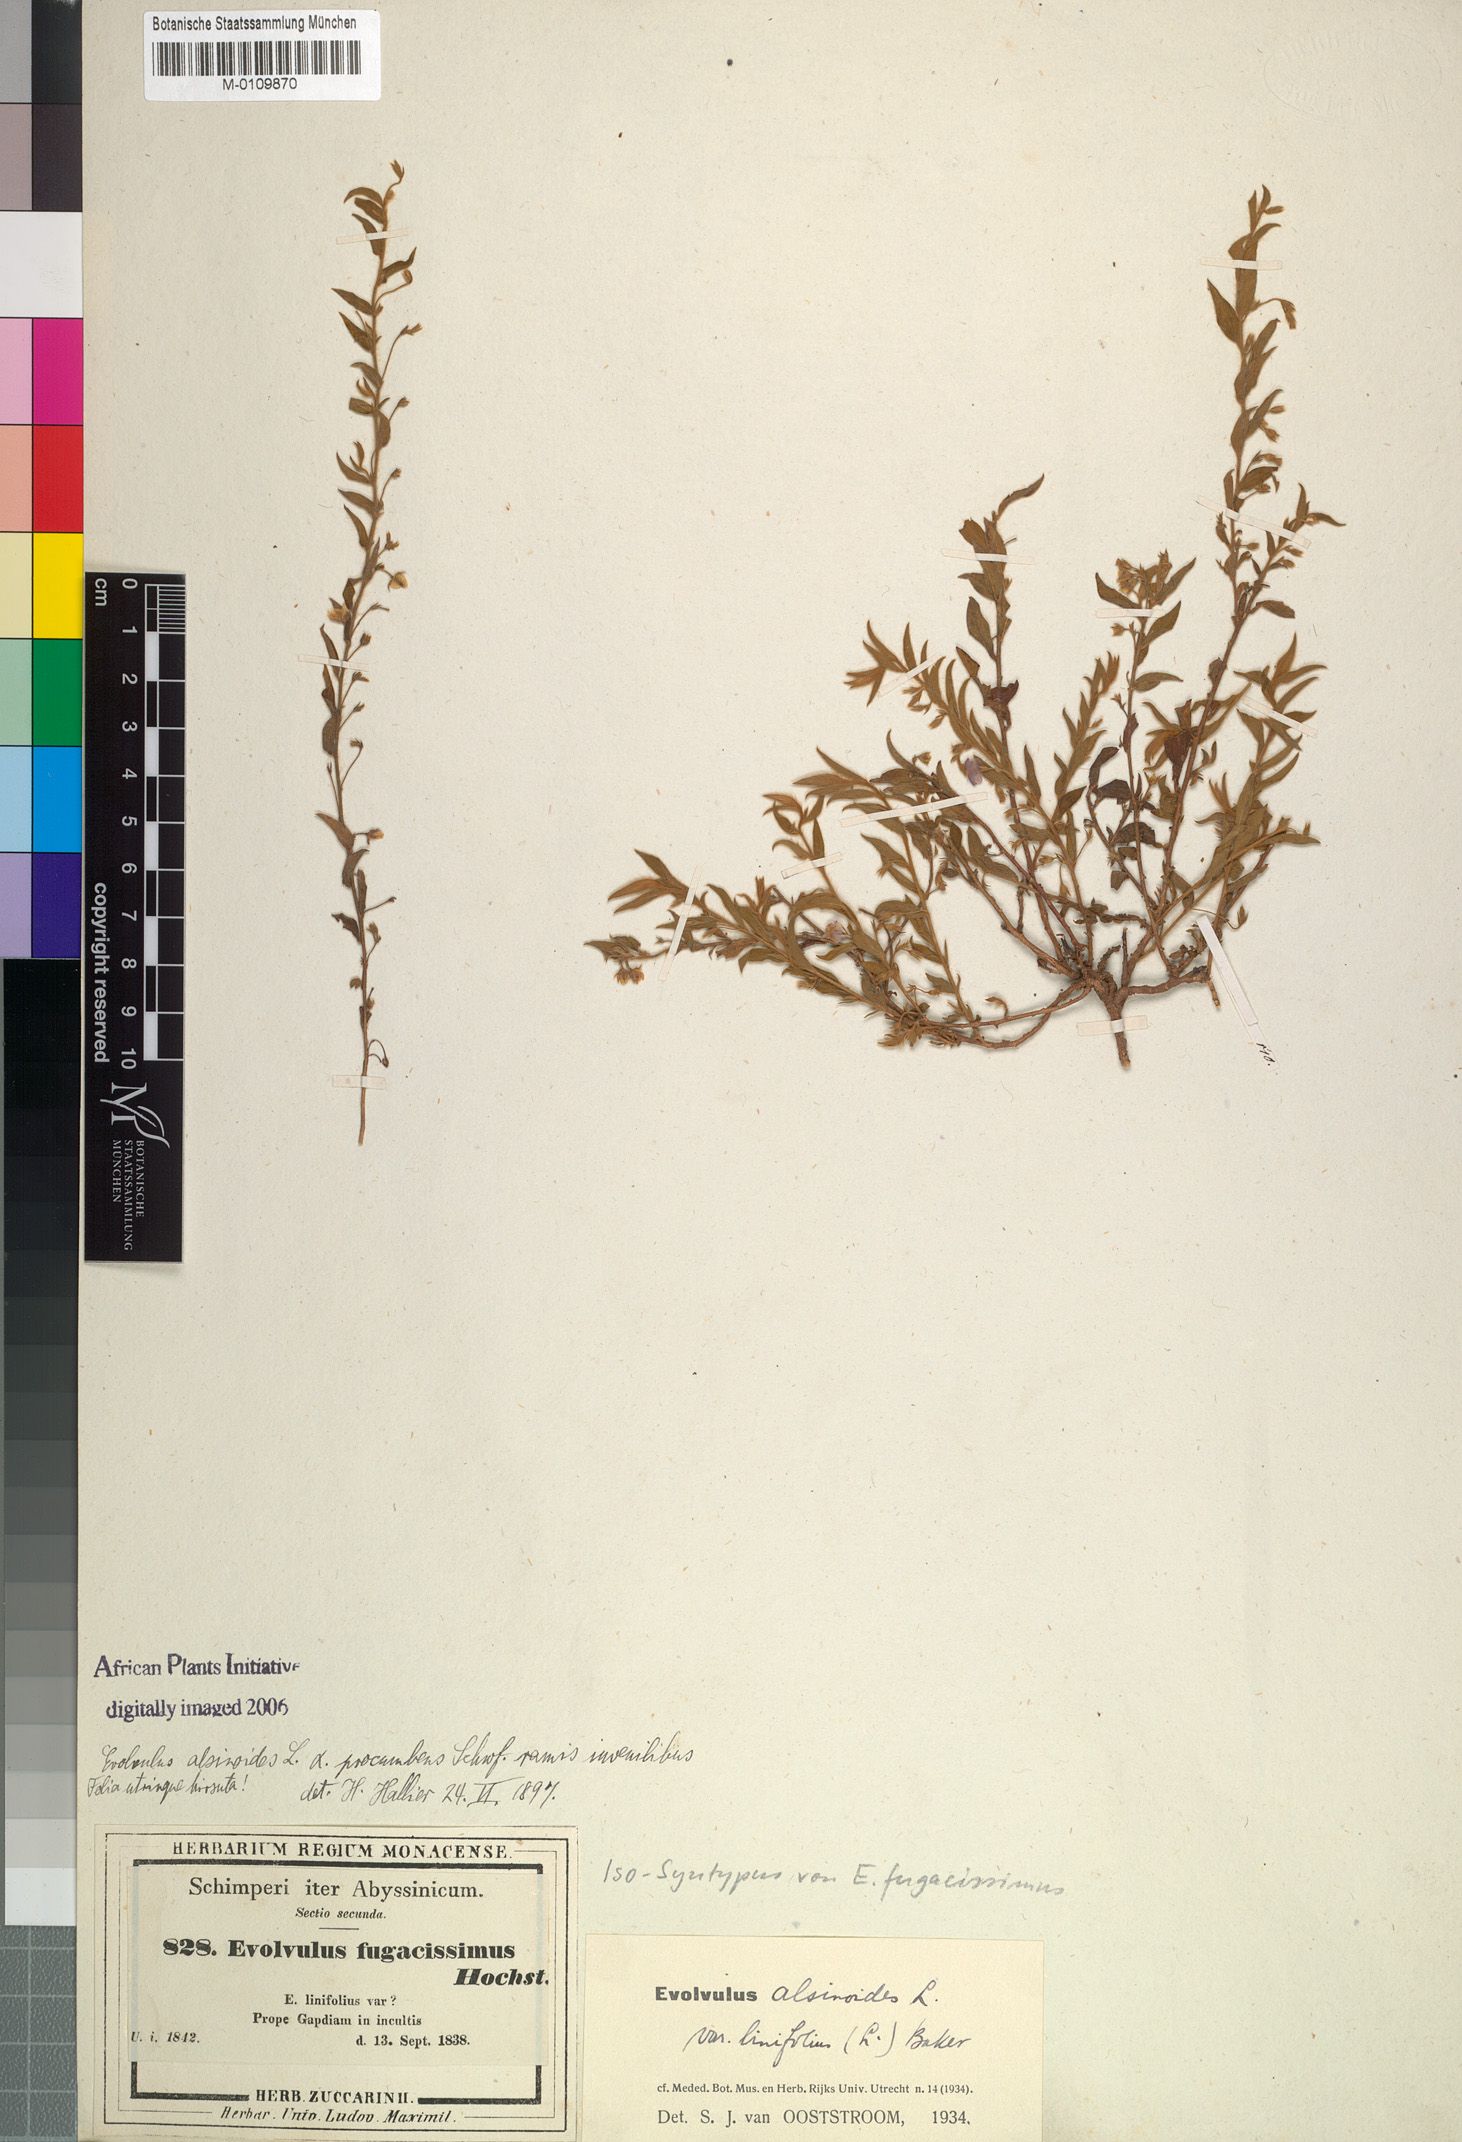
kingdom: Plantae
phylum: Tracheophyta
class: Magnoliopsida
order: Solanales
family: Convolvulaceae
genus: Evolvulus
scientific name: Evolvulus alsinoides
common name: Slender dwarf morning-glory
